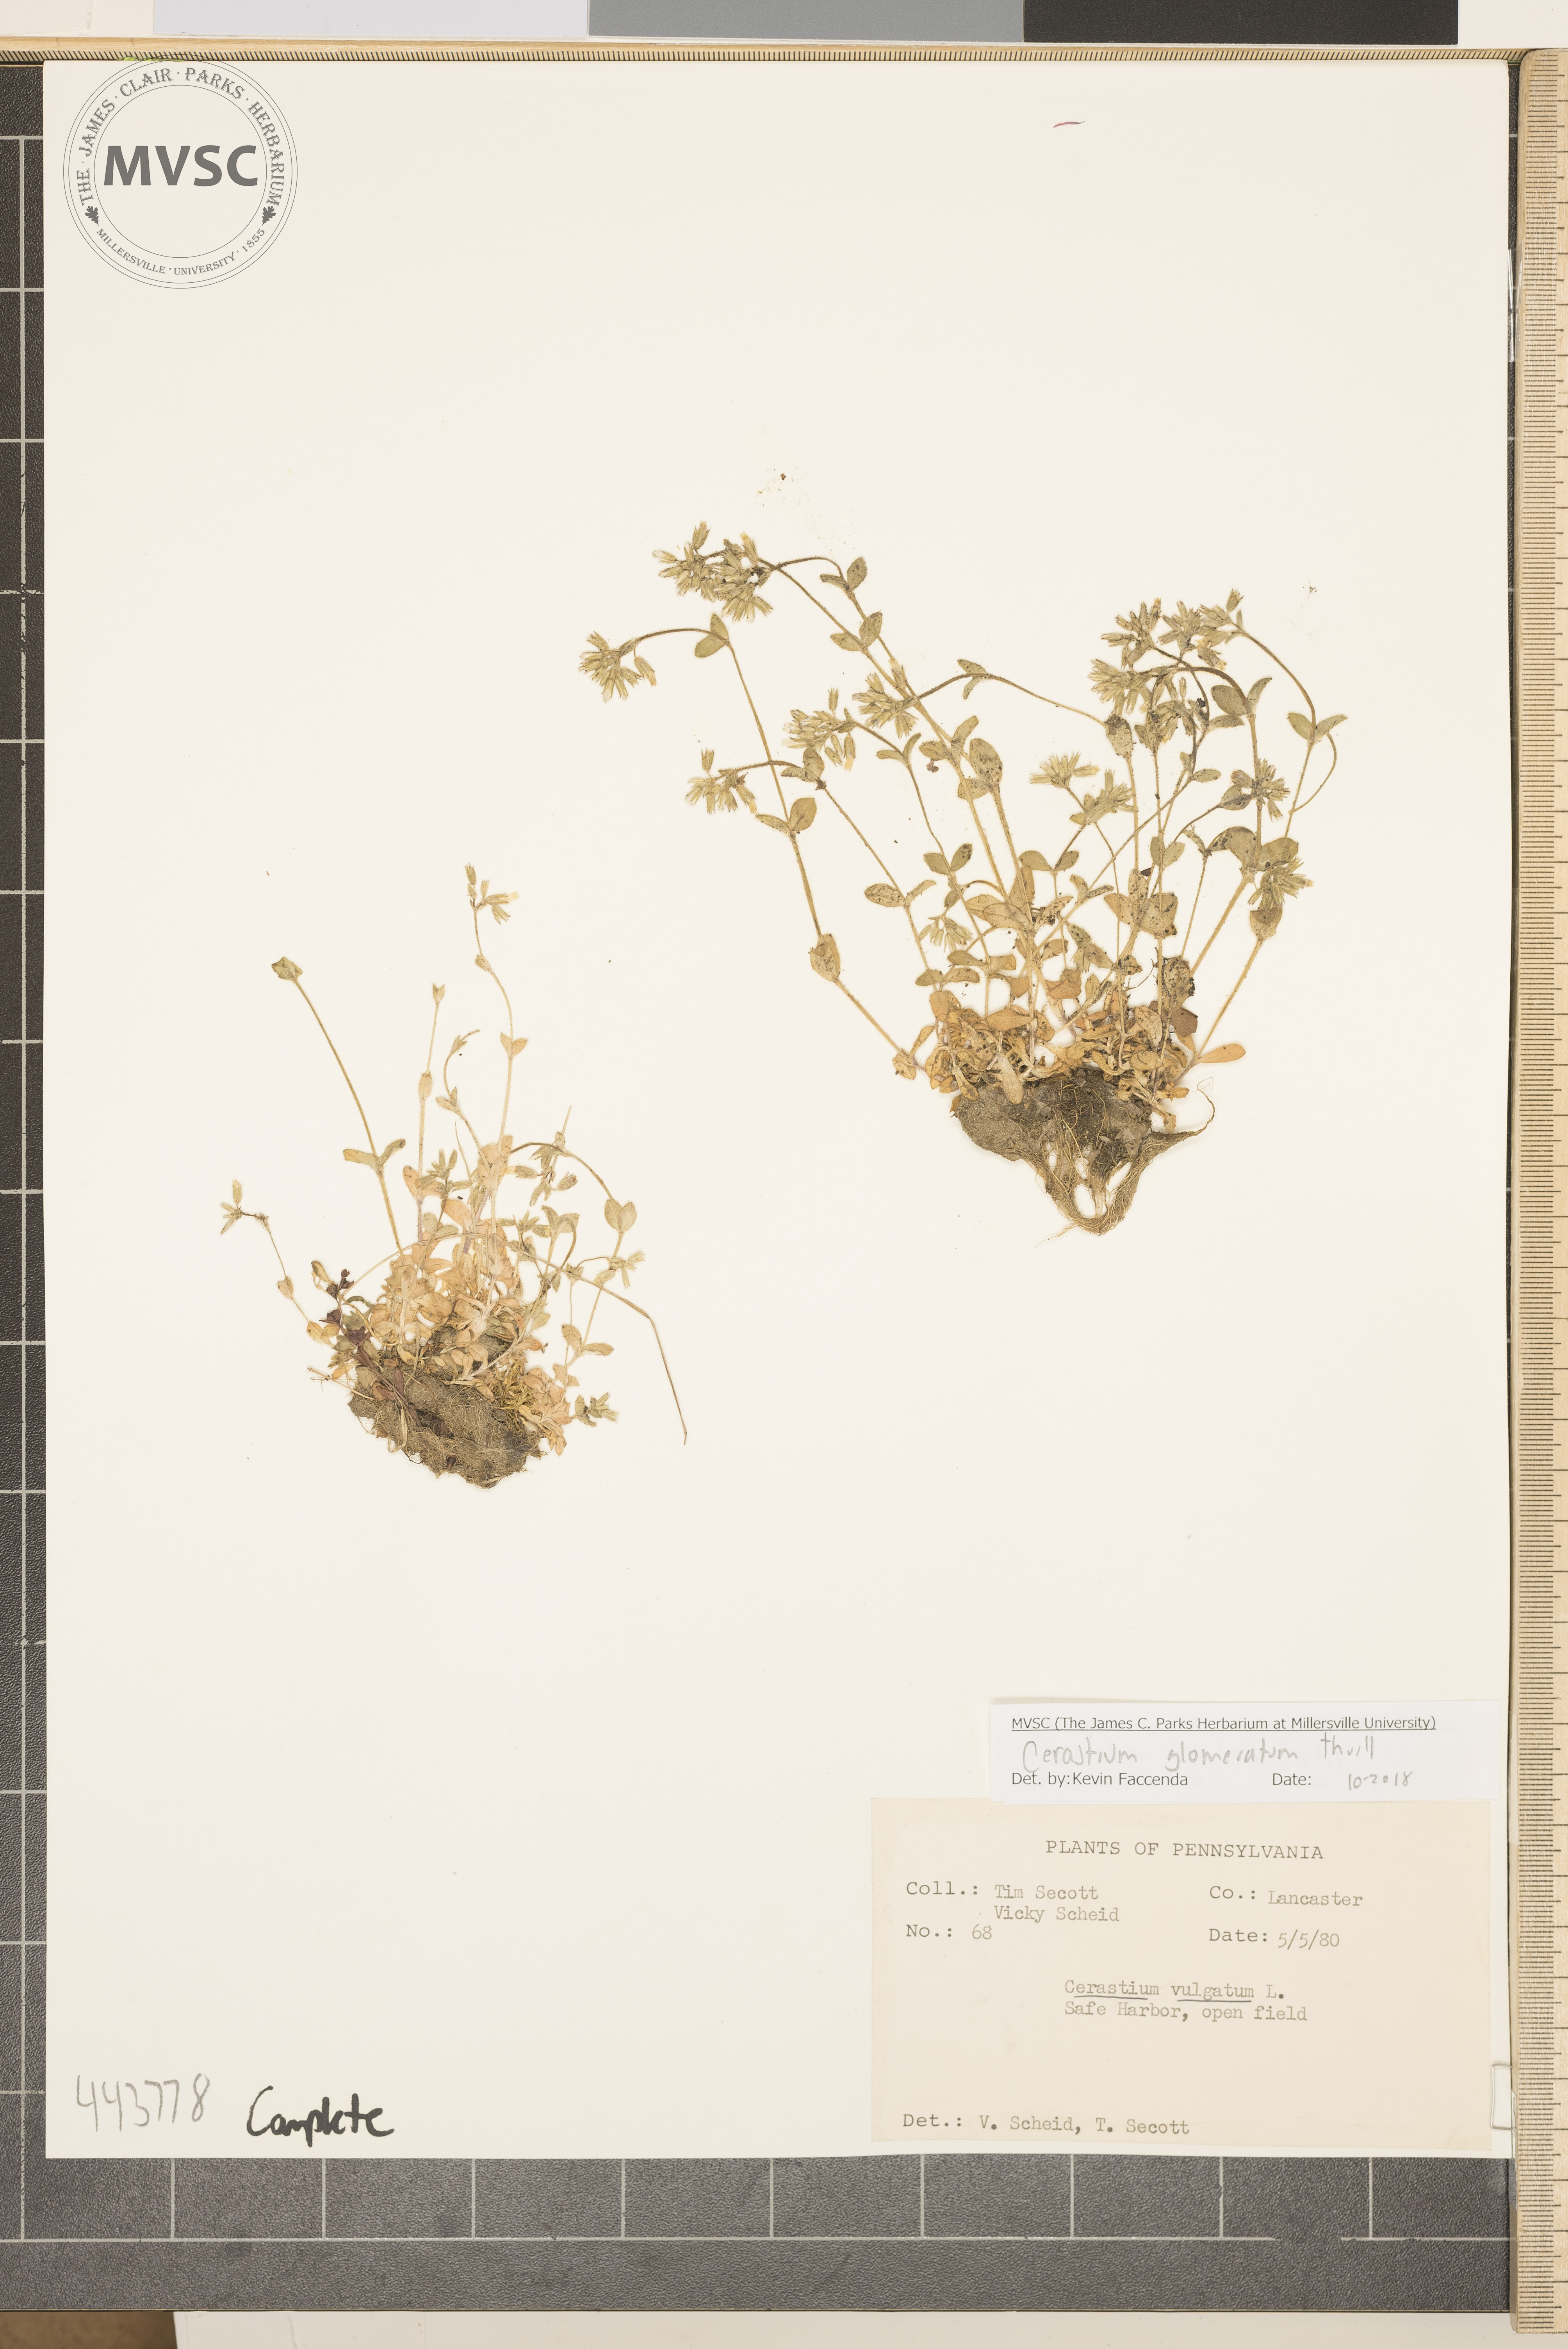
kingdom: Plantae
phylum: Tracheophyta
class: Magnoliopsida
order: Caryophyllales
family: Caryophyllaceae
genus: Cerastium
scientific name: Cerastium glomeratum
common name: Sticky chickweed
